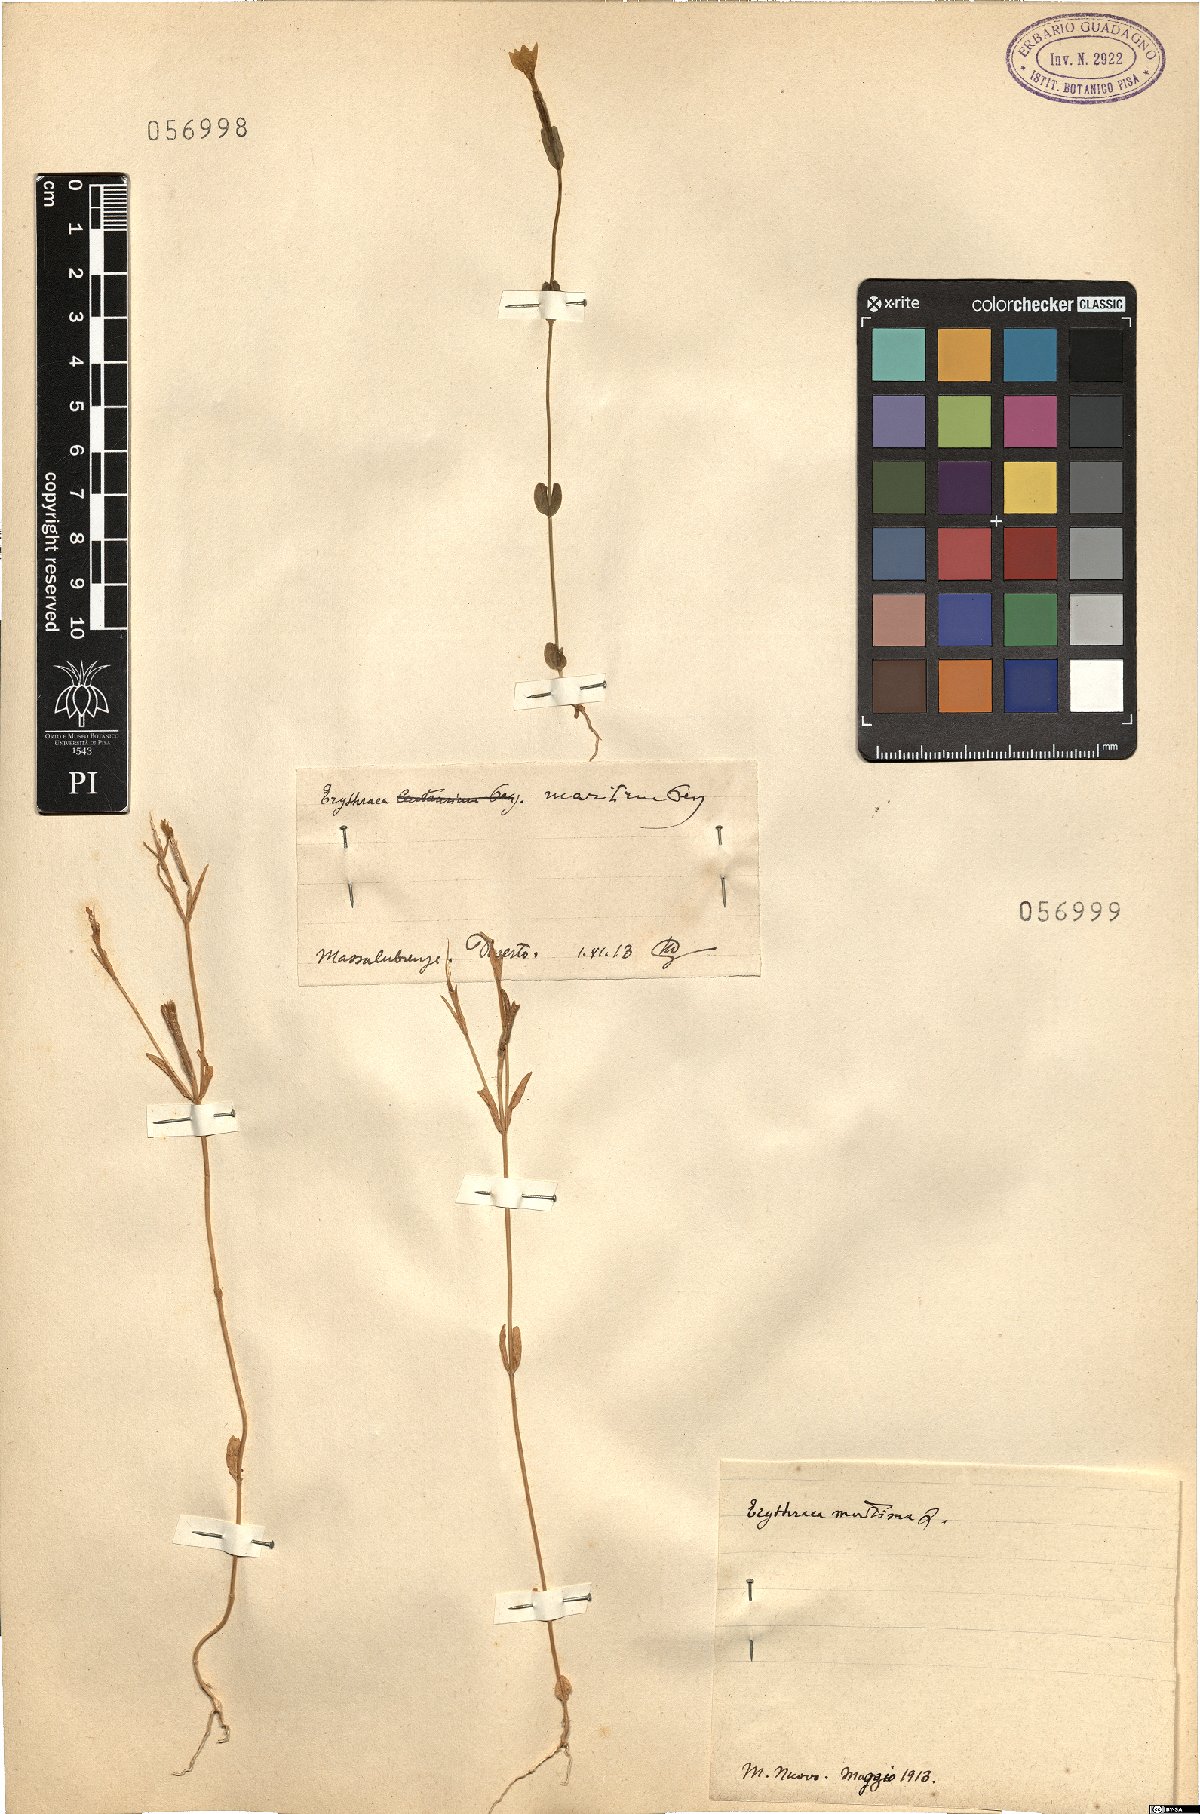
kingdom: Plantae
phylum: Tracheophyta
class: Magnoliopsida
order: Gentianales
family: Gentianaceae
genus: Centaurium
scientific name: Centaurium maritimum
